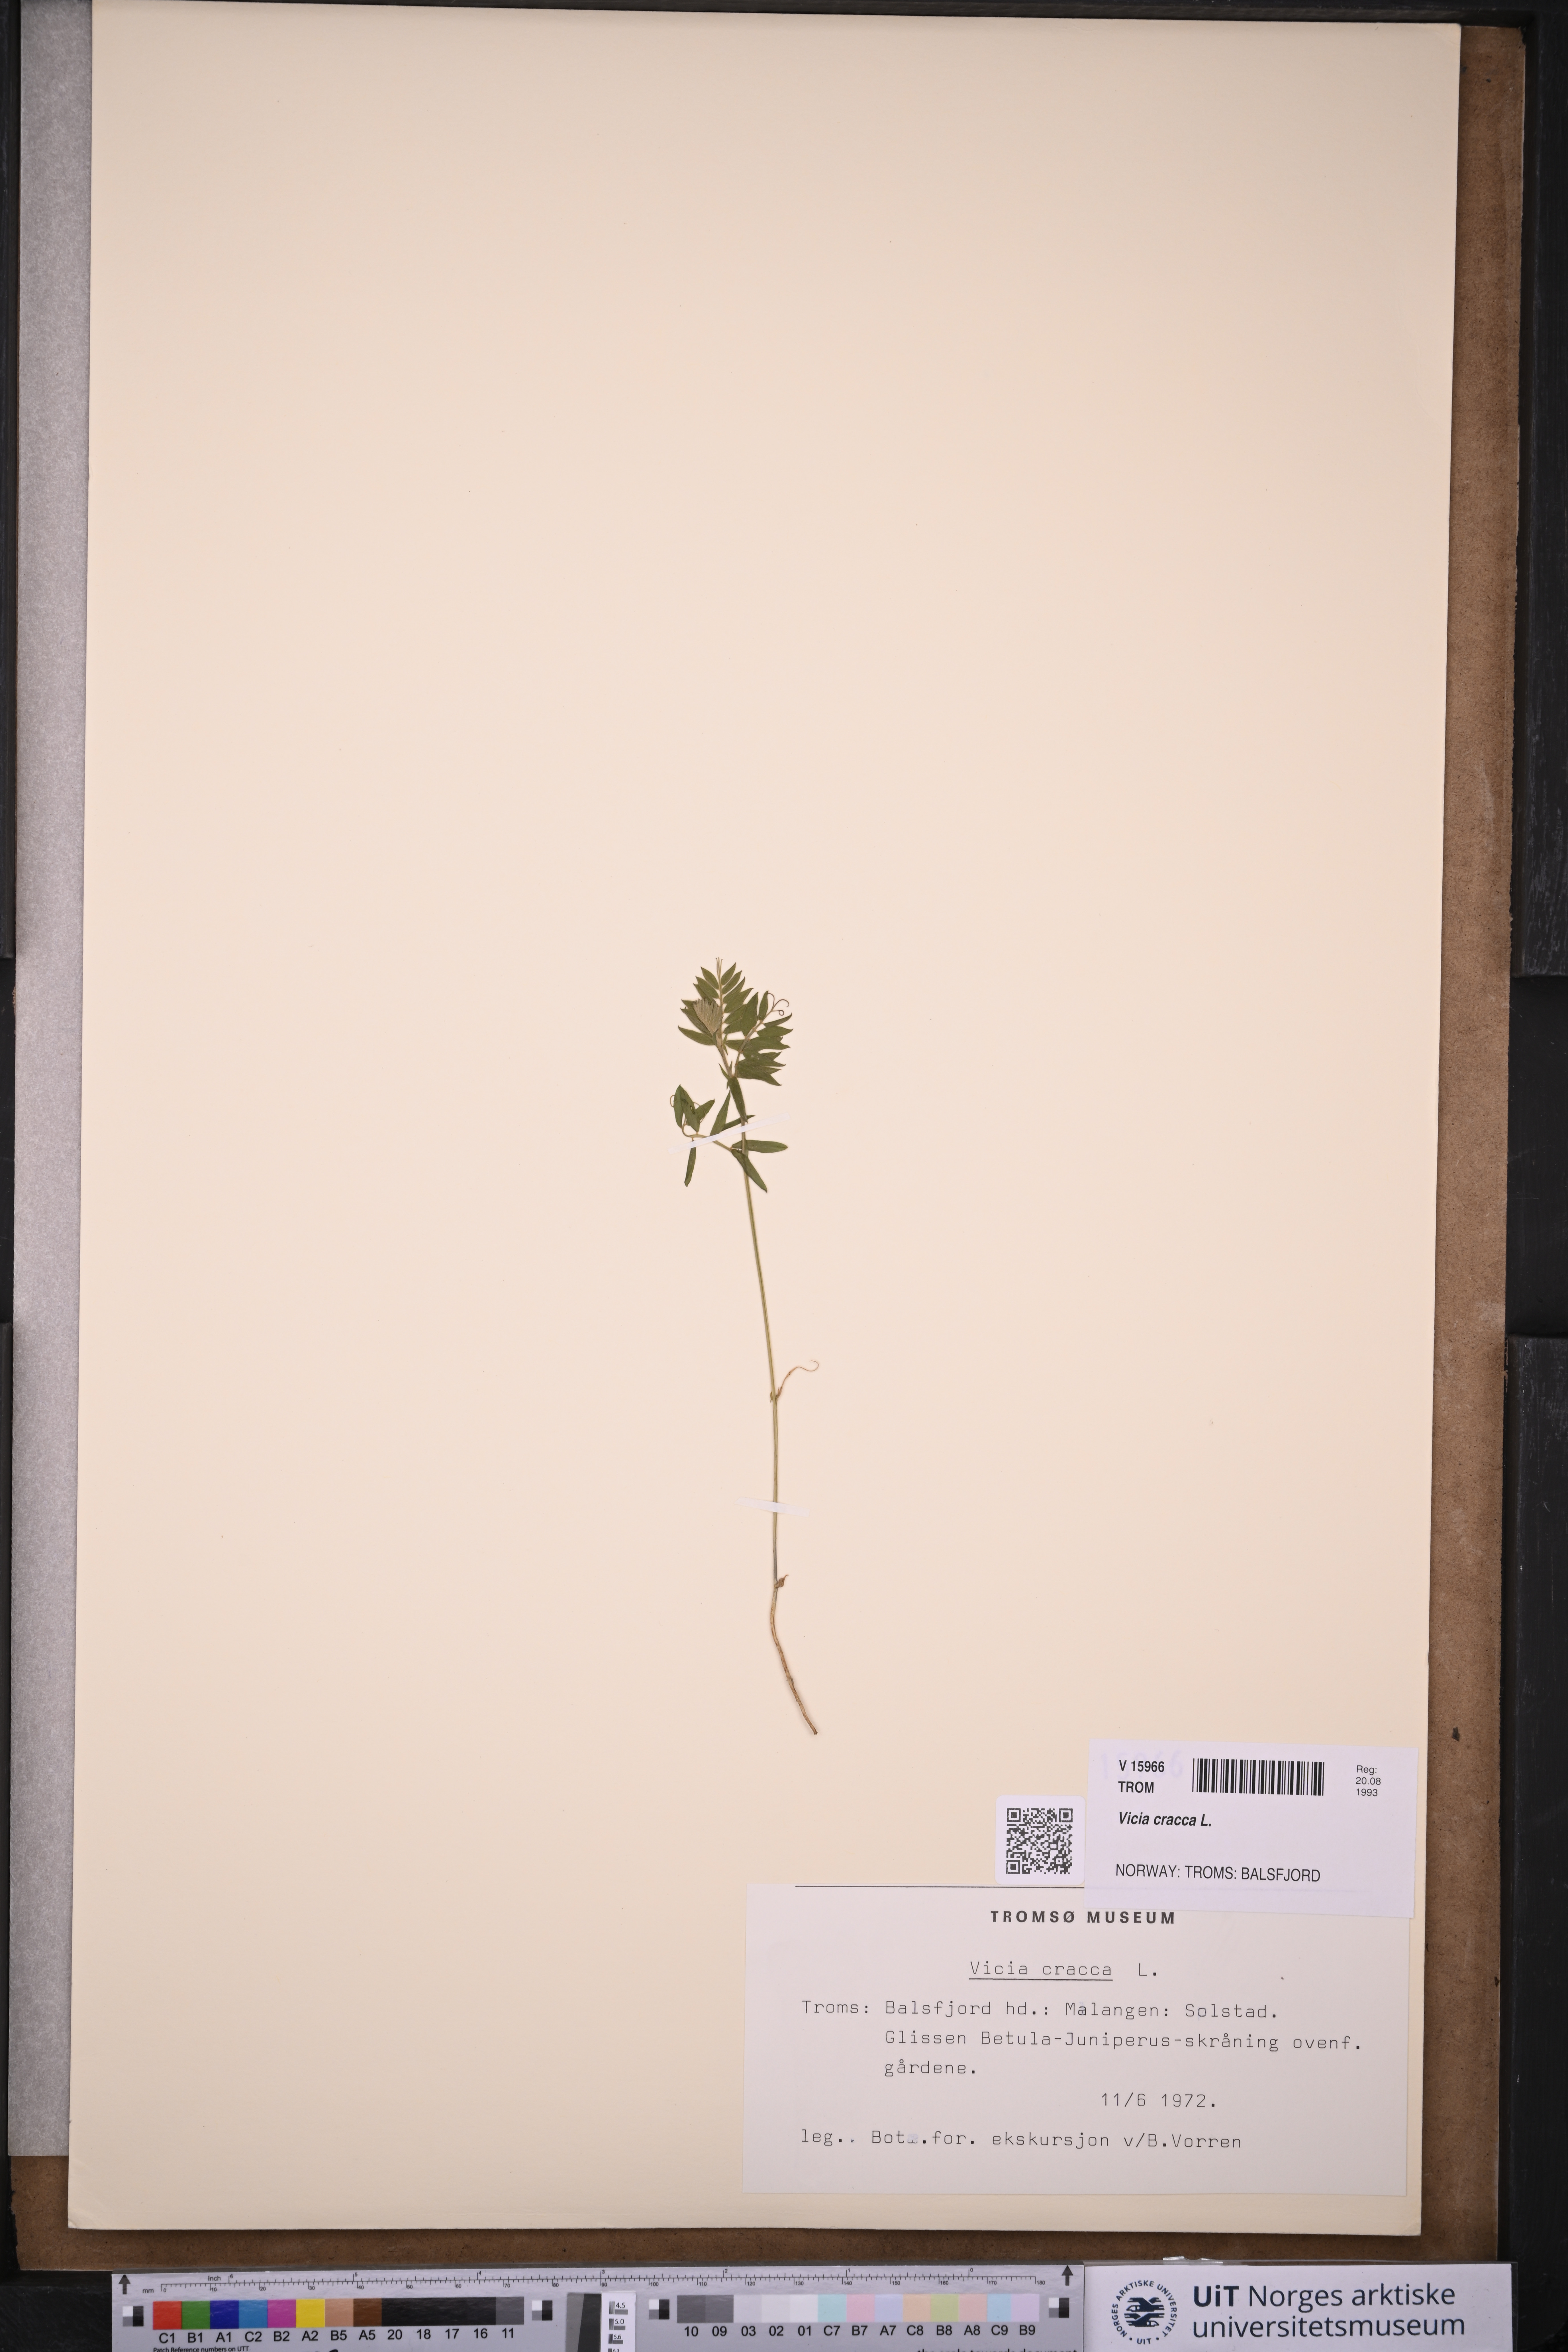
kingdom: Plantae
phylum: Tracheophyta
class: Magnoliopsida
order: Fabales
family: Fabaceae
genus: Vicia
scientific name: Vicia cracca
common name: Bird vetch
